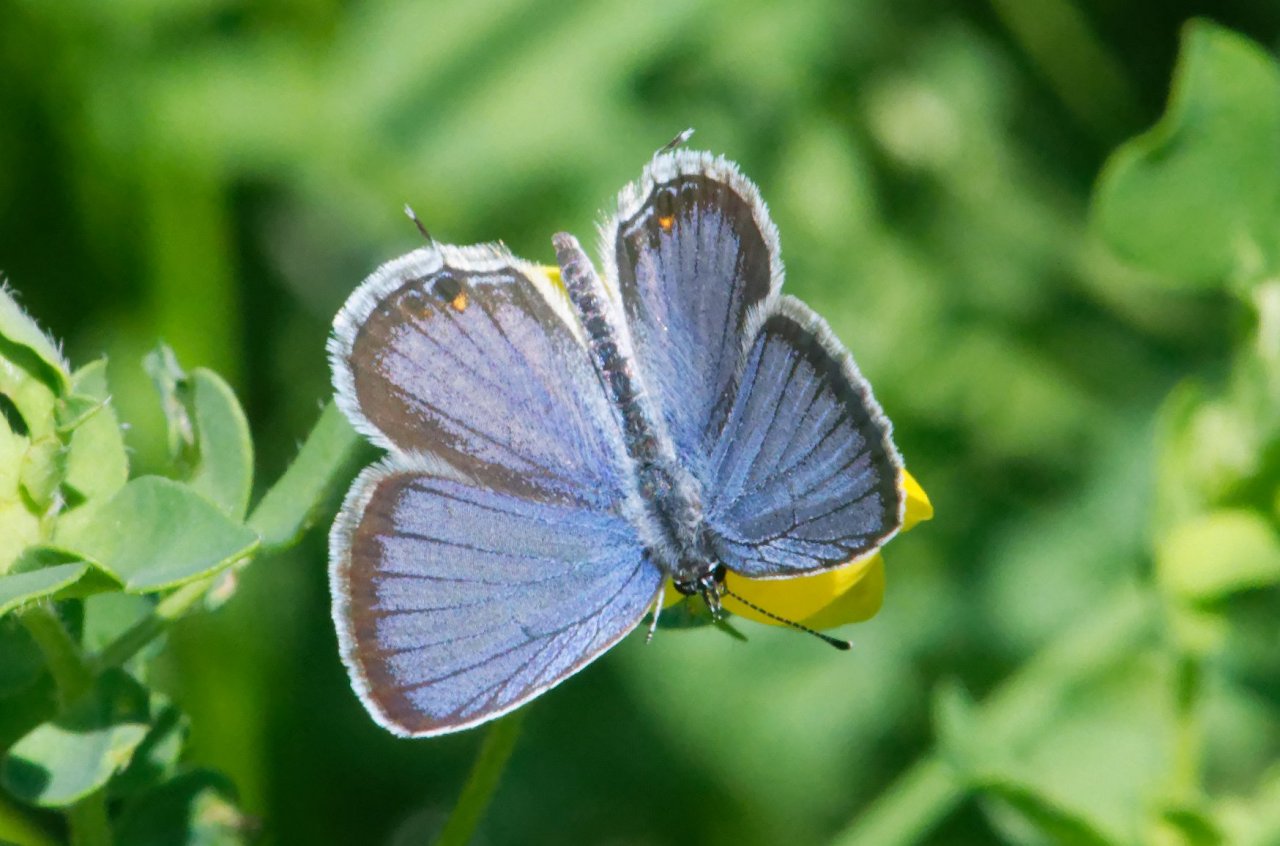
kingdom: Animalia
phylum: Arthropoda
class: Insecta
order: Lepidoptera
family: Lycaenidae
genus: Elkalyce
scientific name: Elkalyce comyntas
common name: Eastern Tailed-Blue
